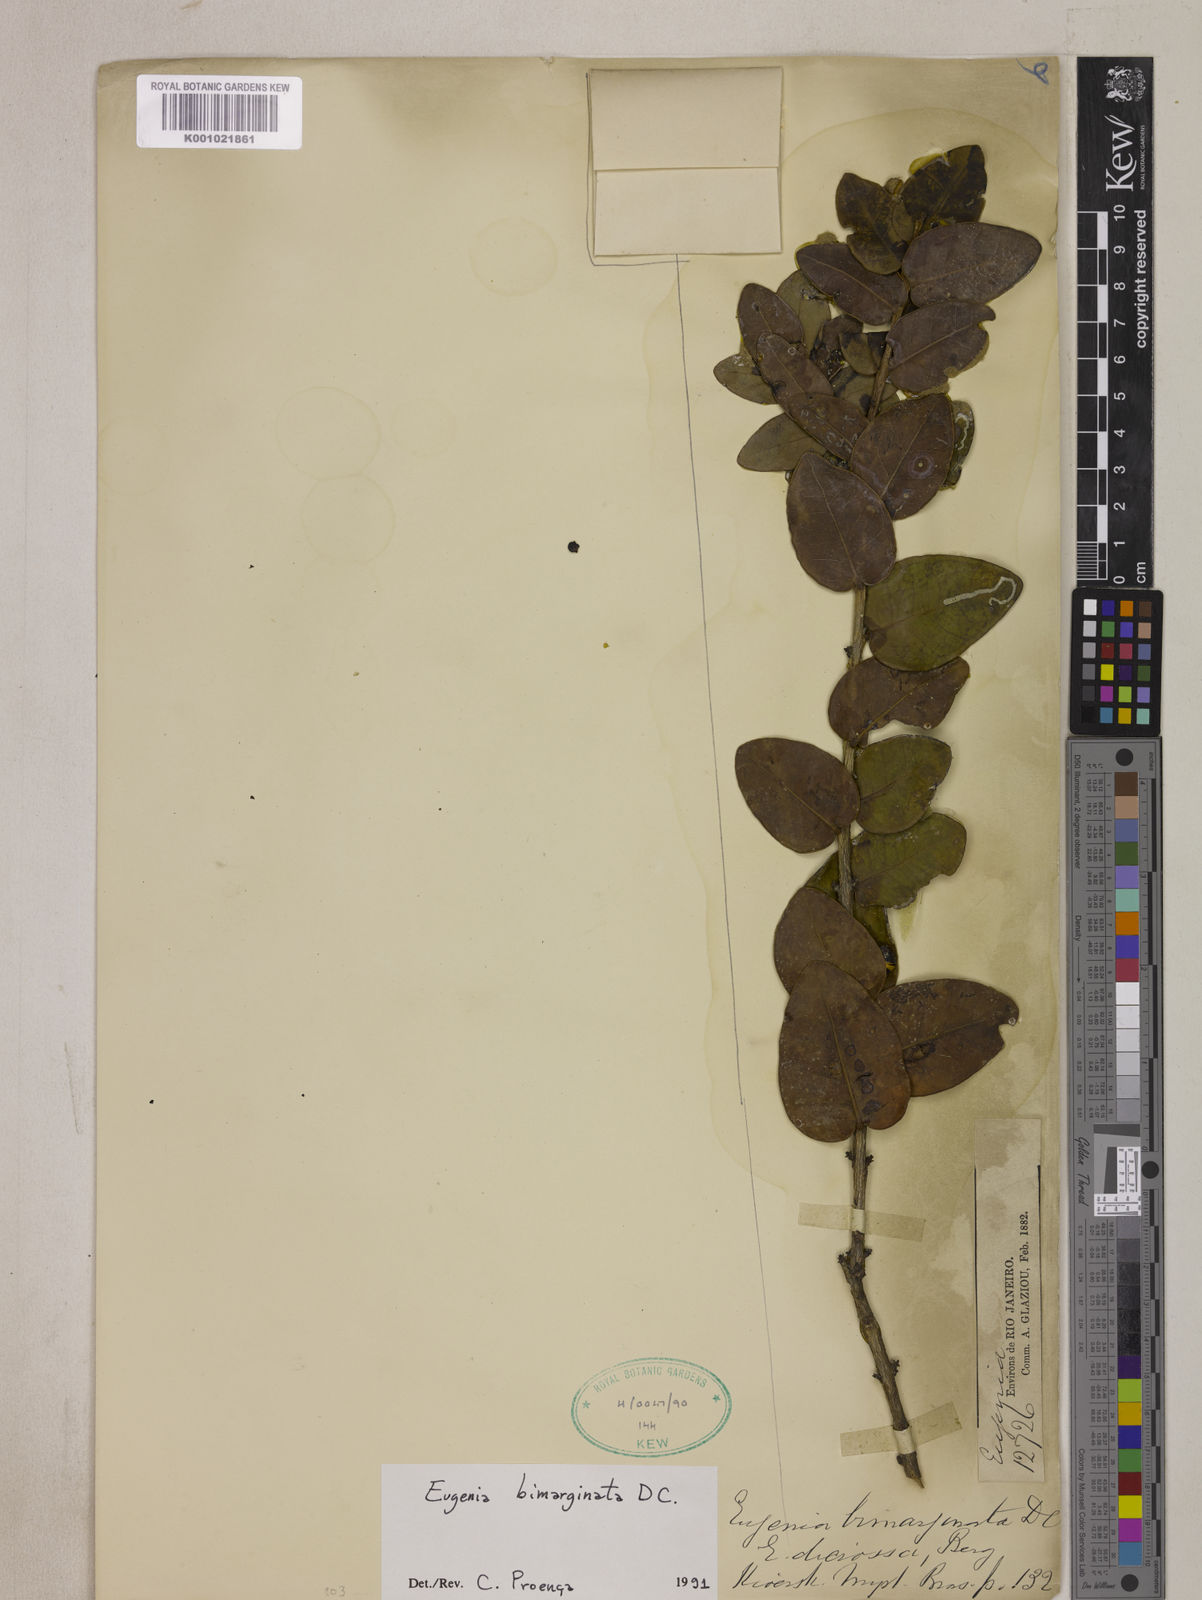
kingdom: Plantae
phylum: Tracheophyta
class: Magnoliopsida
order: Myrtales
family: Myrtaceae
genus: Eugenia
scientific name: Eugenia bimarginata
